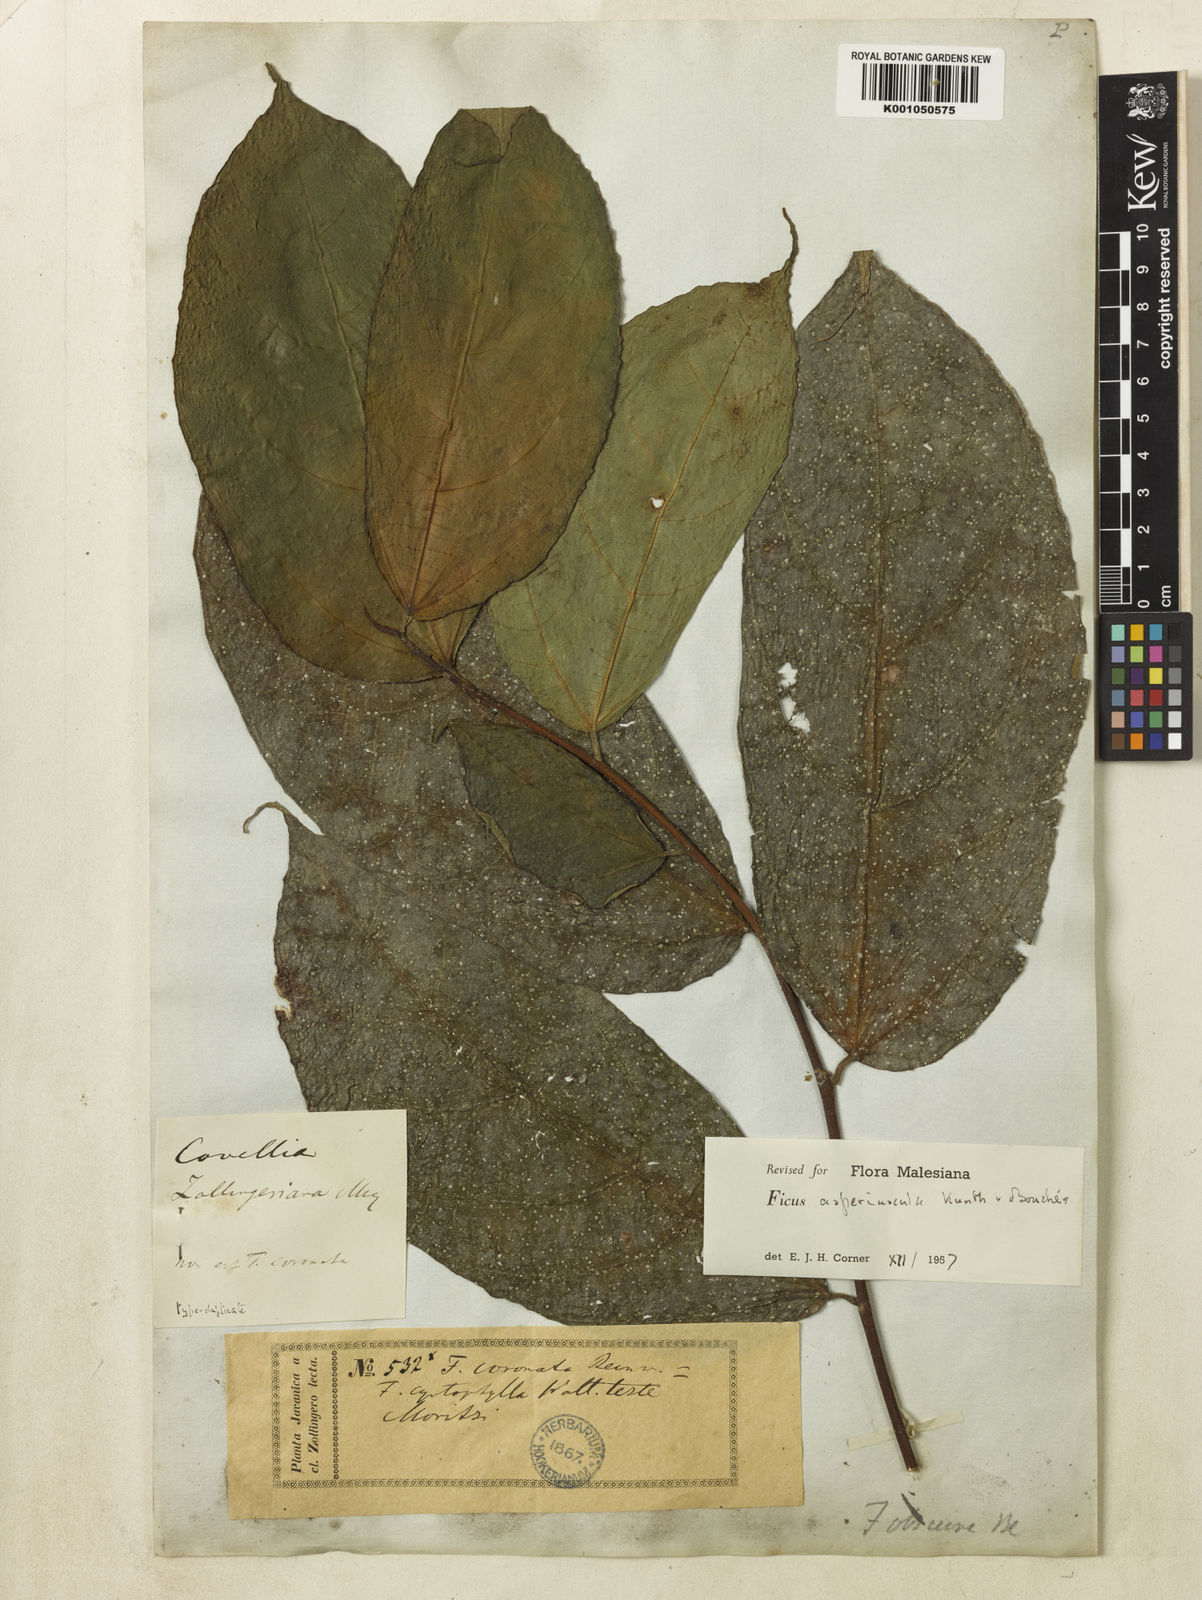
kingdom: Plantae
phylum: Tracheophyta
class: Magnoliopsida
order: Rosales
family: Moraceae
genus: Ficus
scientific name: Ficus
